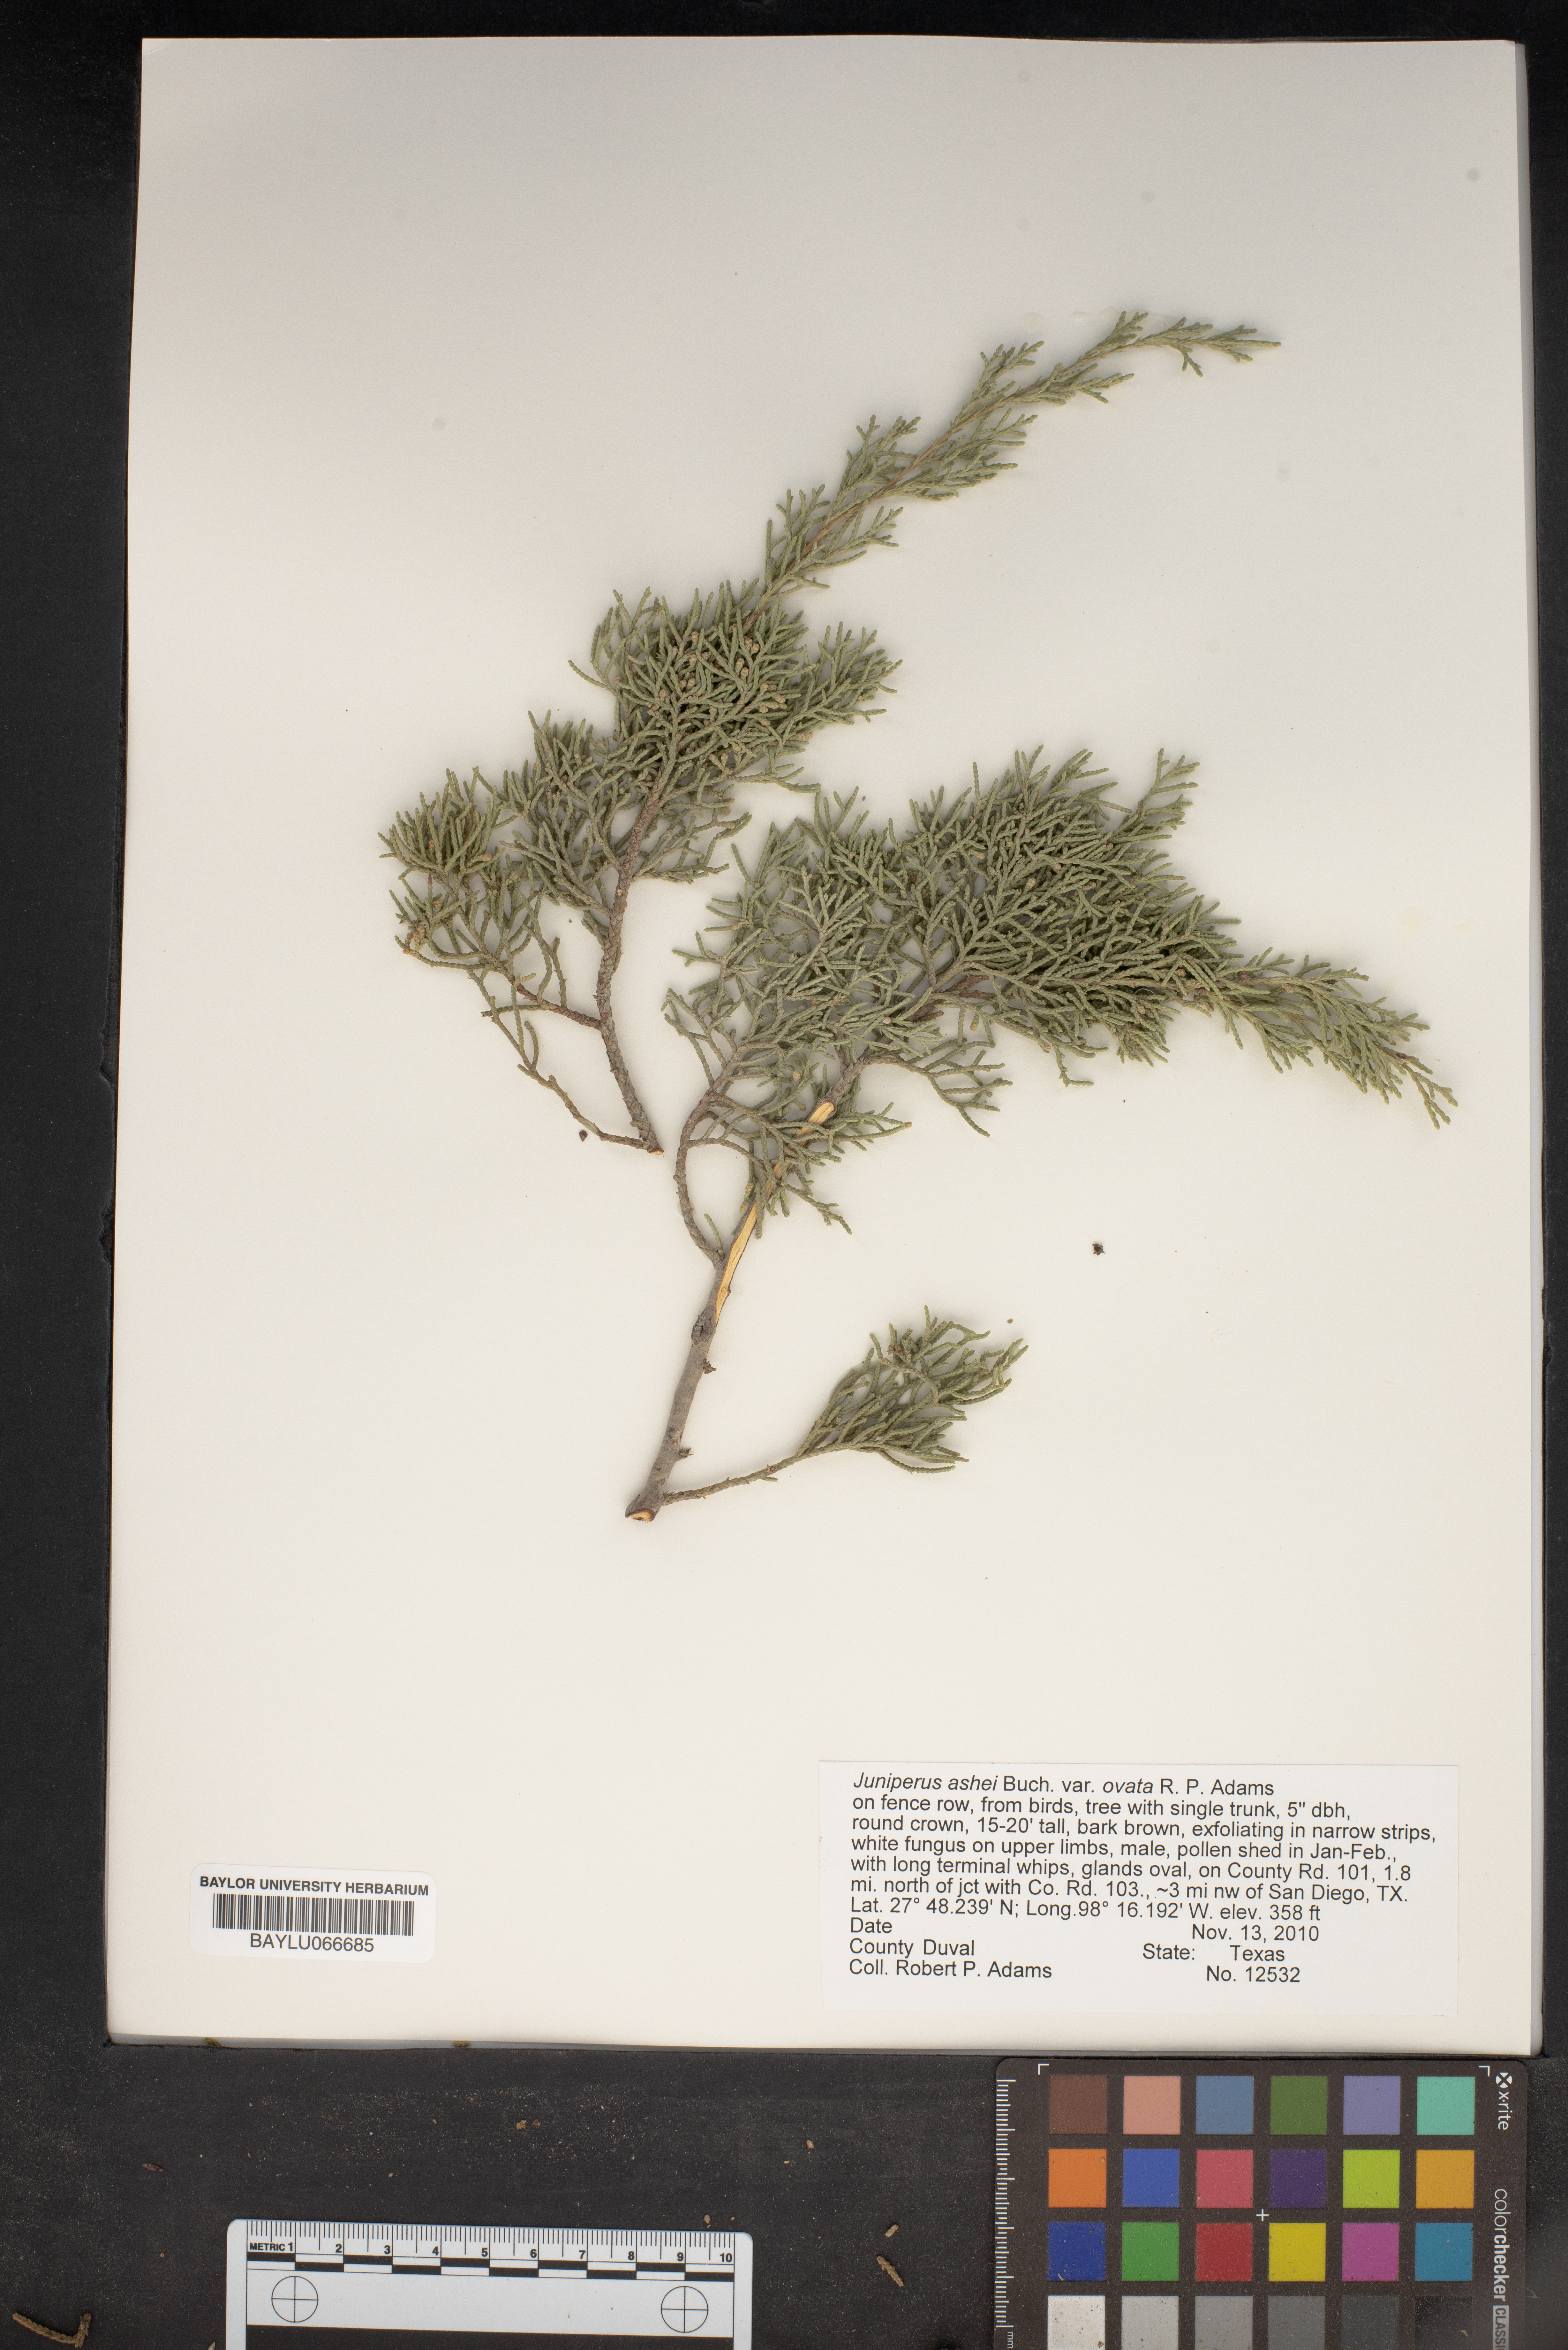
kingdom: Plantae
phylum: Tracheophyta
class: Pinopsida
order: Pinales
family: Cupressaceae
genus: Juniperus
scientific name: Juniperus ashei
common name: Mexican juniper
